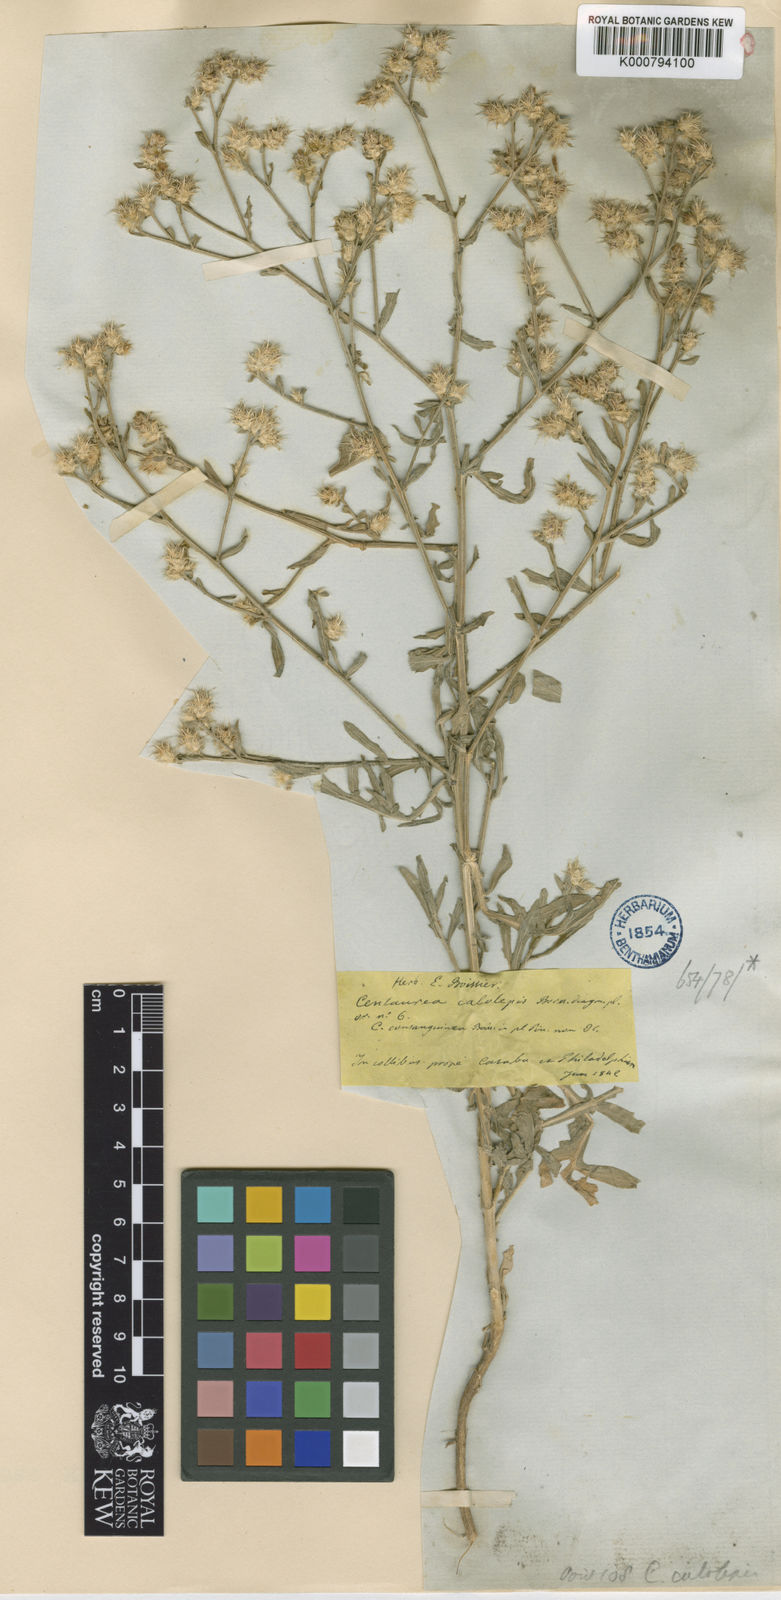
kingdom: Plantae
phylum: Tracheophyta
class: Magnoliopsida
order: Asterales
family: Asteraceae
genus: Centaurea
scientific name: Centaurea calolepis
